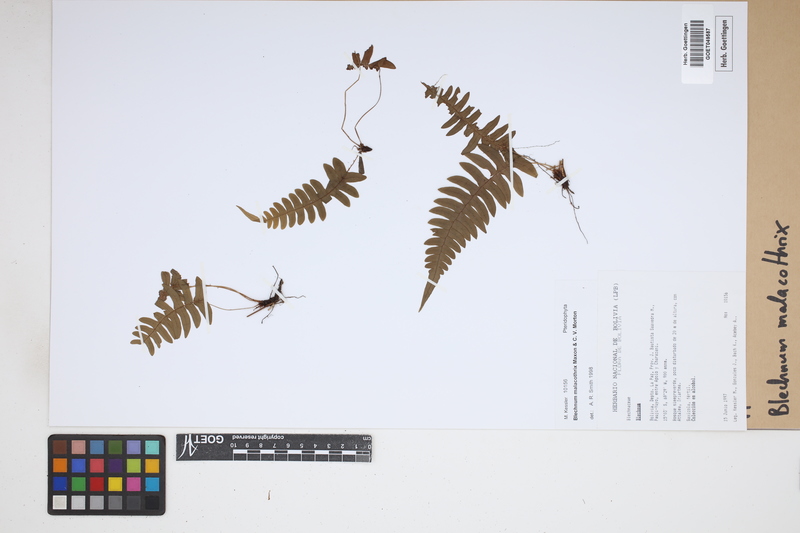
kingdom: Plantae
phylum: Tracheophyta
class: Polypodiopsida
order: Polypodiales
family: Blechnaceae
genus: Blechnum
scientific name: Blechnum malacothrix
